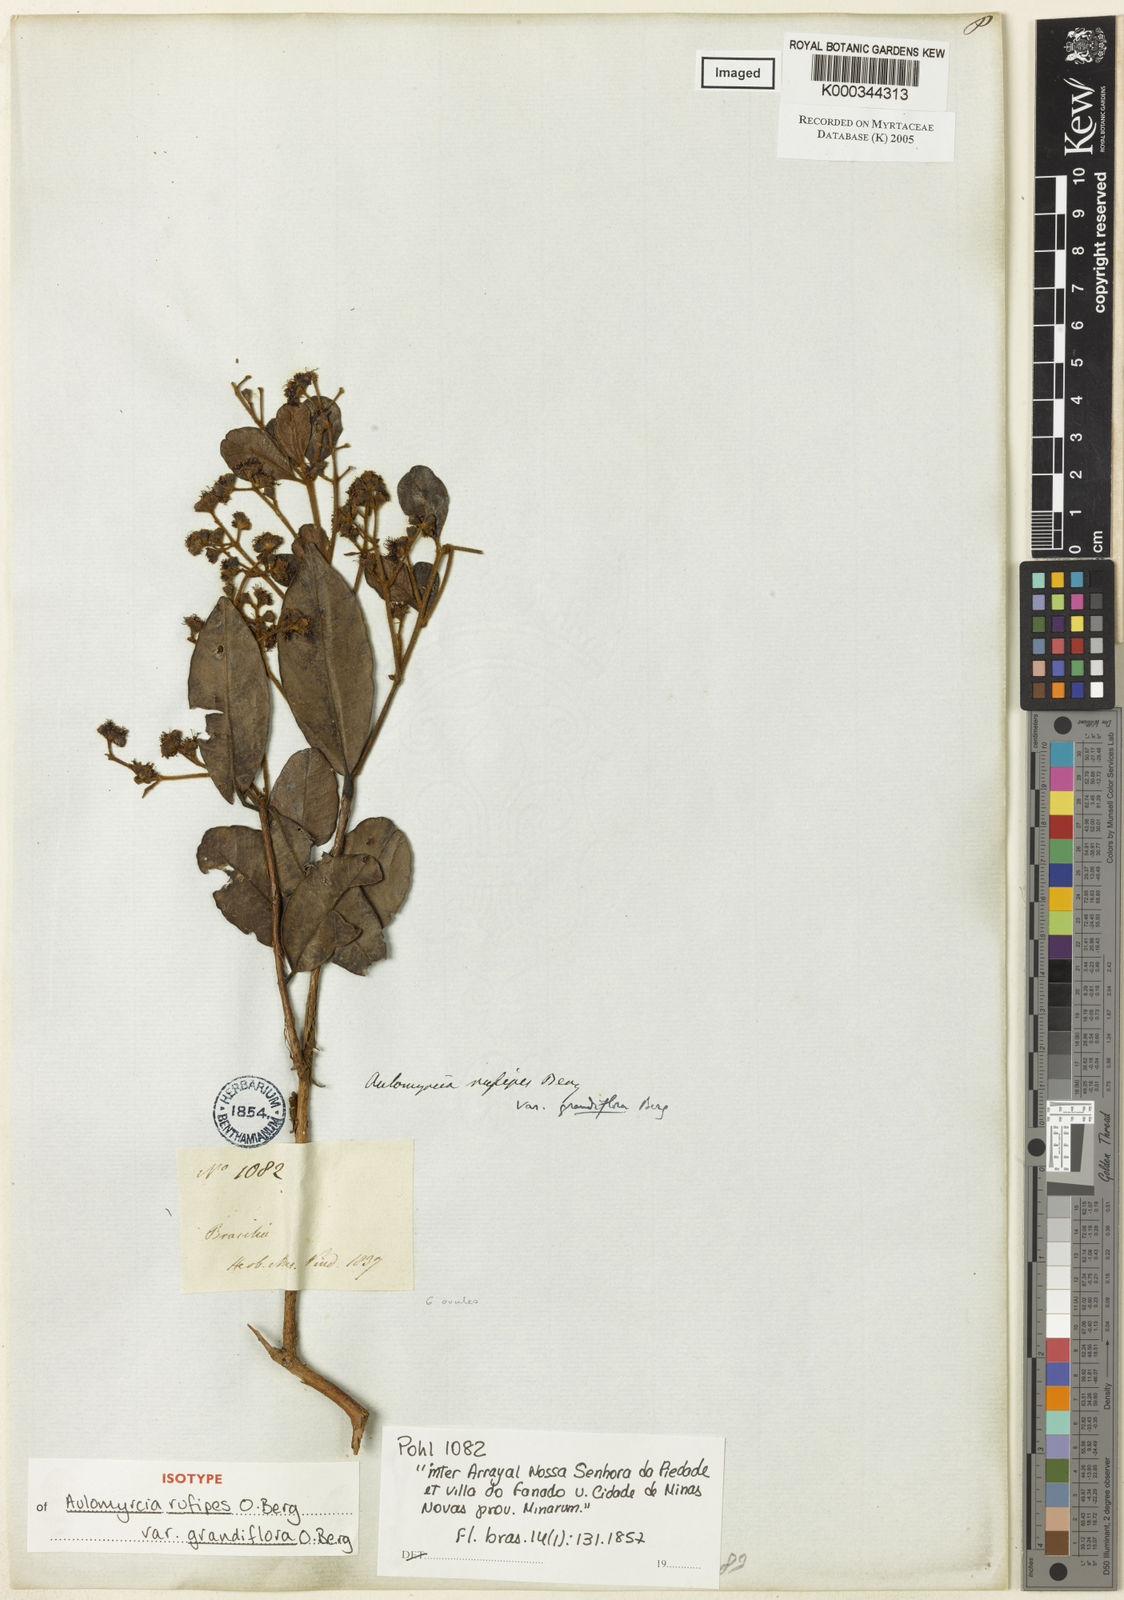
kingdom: Plantae
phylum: Tracheophyta
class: Magnoliopsida
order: Myrtales
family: Myrtaceae
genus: Myrcia
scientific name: Myrcia rufipes
